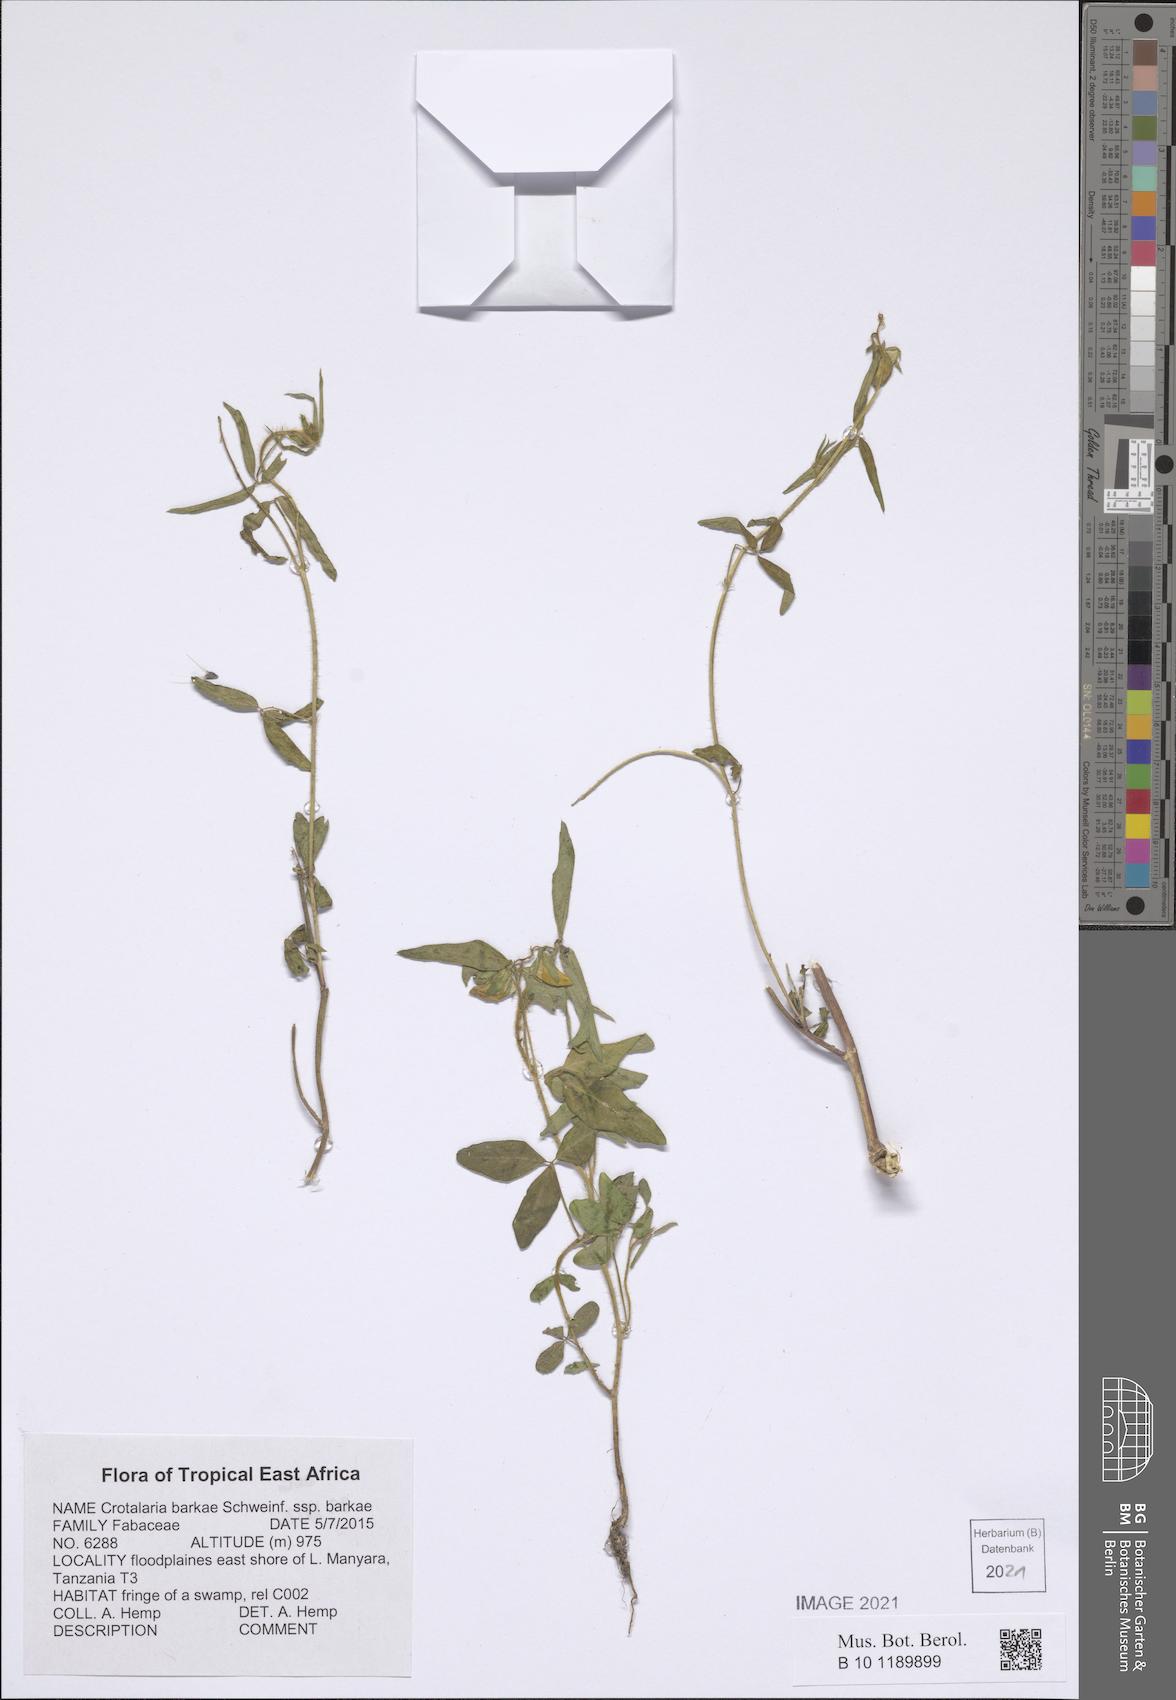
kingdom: Plantae
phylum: Tracheophyta
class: Magnoliopsida
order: Fabales
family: Fabaceae
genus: Crotalaria
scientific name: Crotalaria barkae
